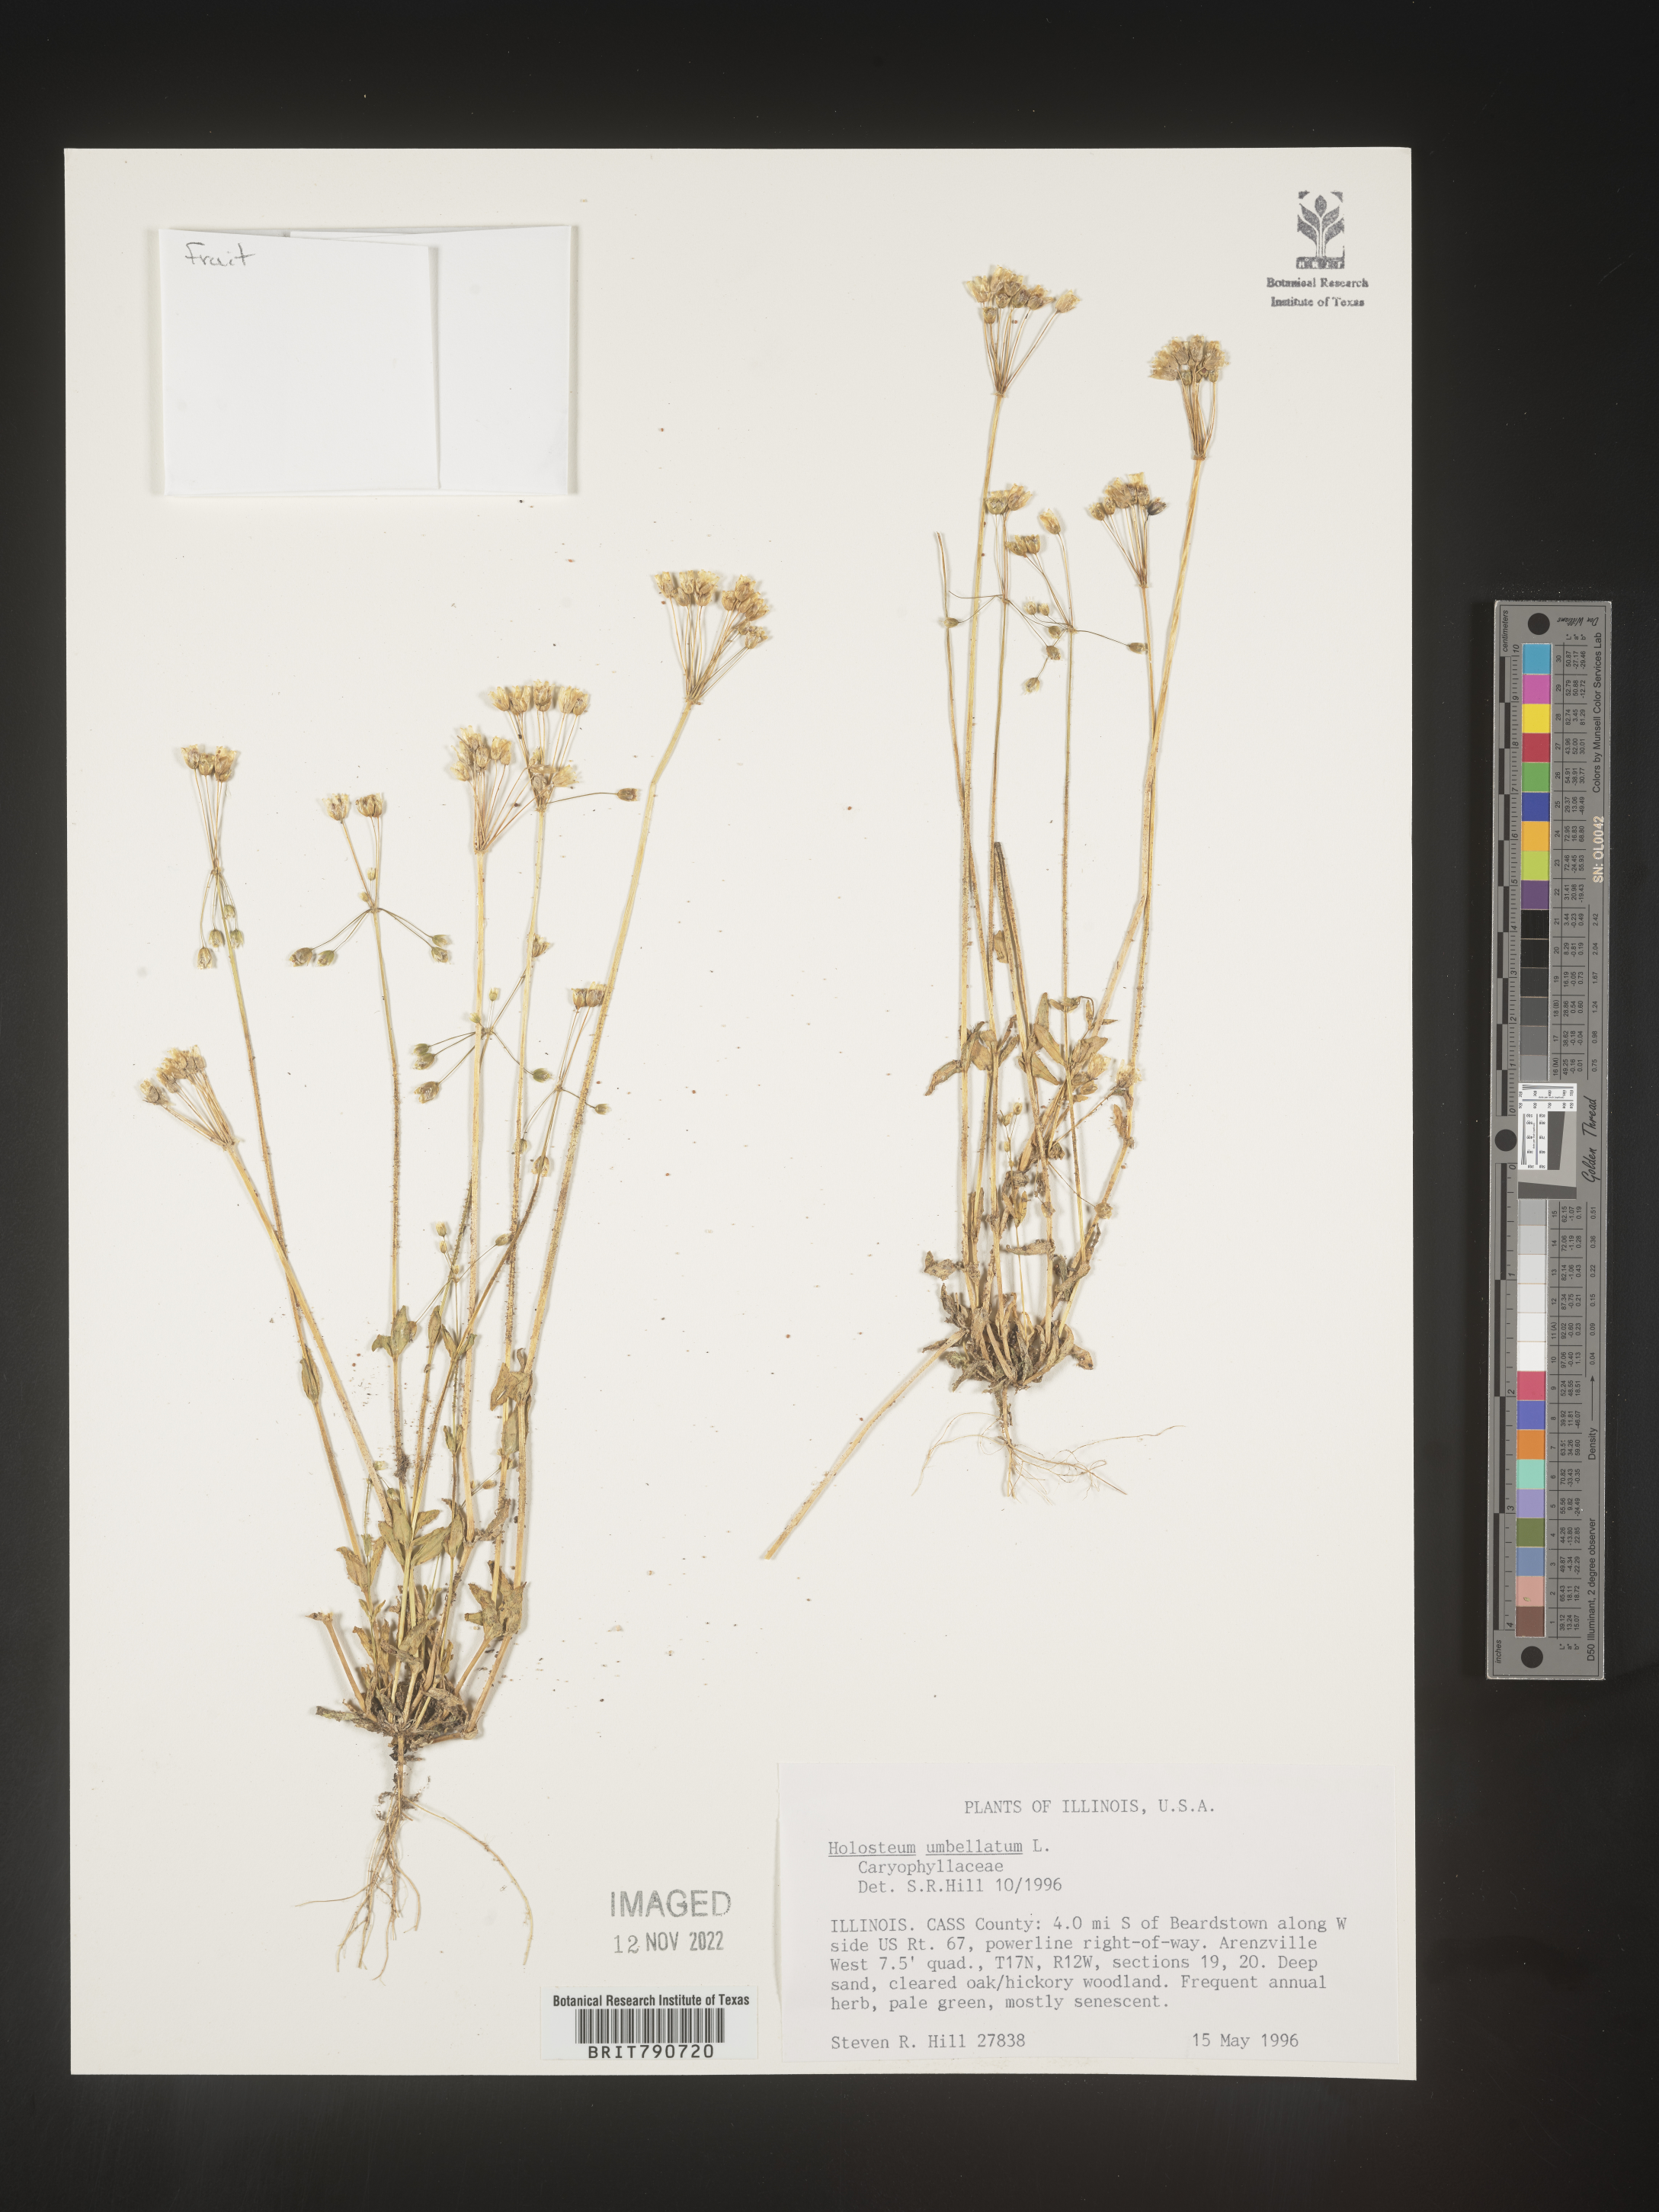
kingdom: Plantae
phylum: Tracheophyta
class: Magnoliopsida
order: Caryophyllales
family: Caryophyllaceae
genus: Holosteum
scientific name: Holosteum
